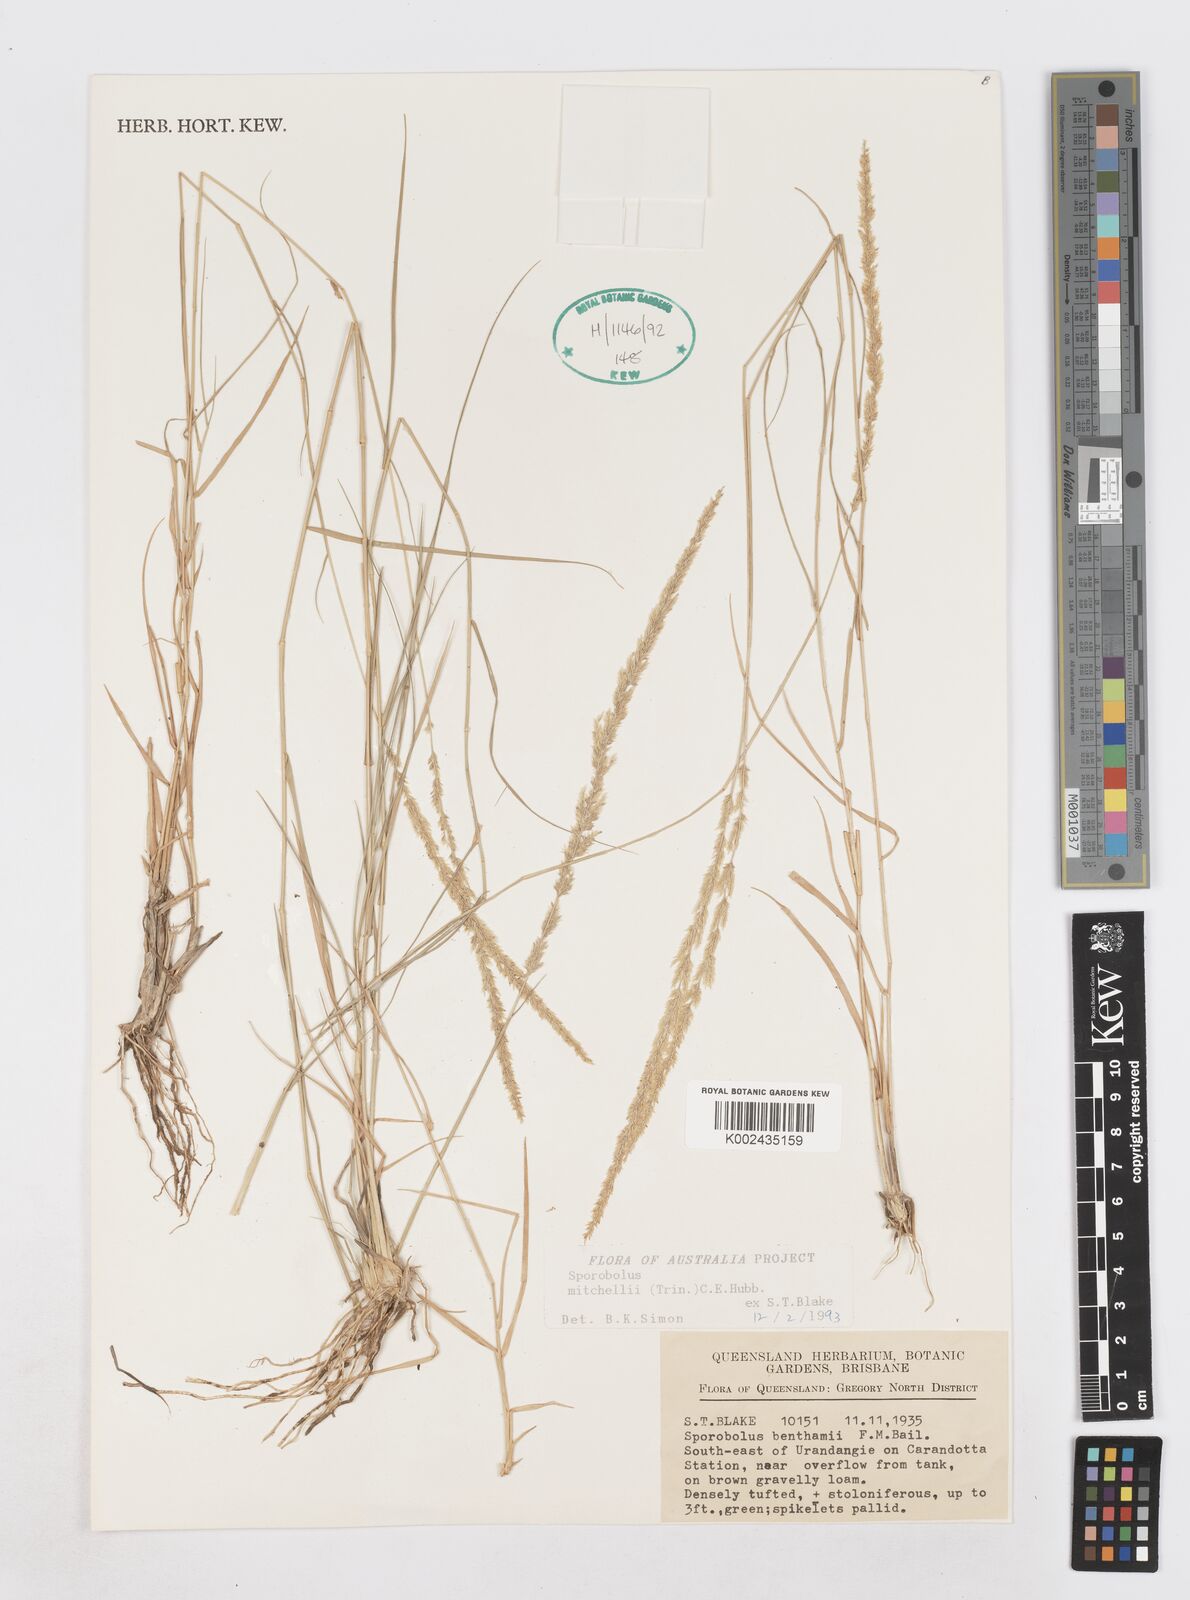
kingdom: Plantae
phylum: Tracheophyta
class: Liliopsida
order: Poales
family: Poaceae
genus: Sporobolus
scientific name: Sporobolus mitchellii
